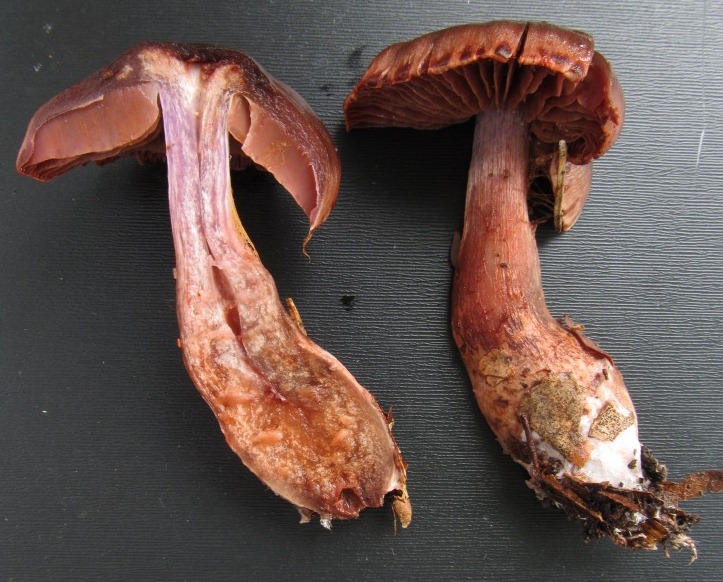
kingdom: Fungi
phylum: Basidiomycota
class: Agaricomycetes
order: Agaricales
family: Cortinariaceae
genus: Cortinarius
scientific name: Cortinarius danicus
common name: dansk slørhat
